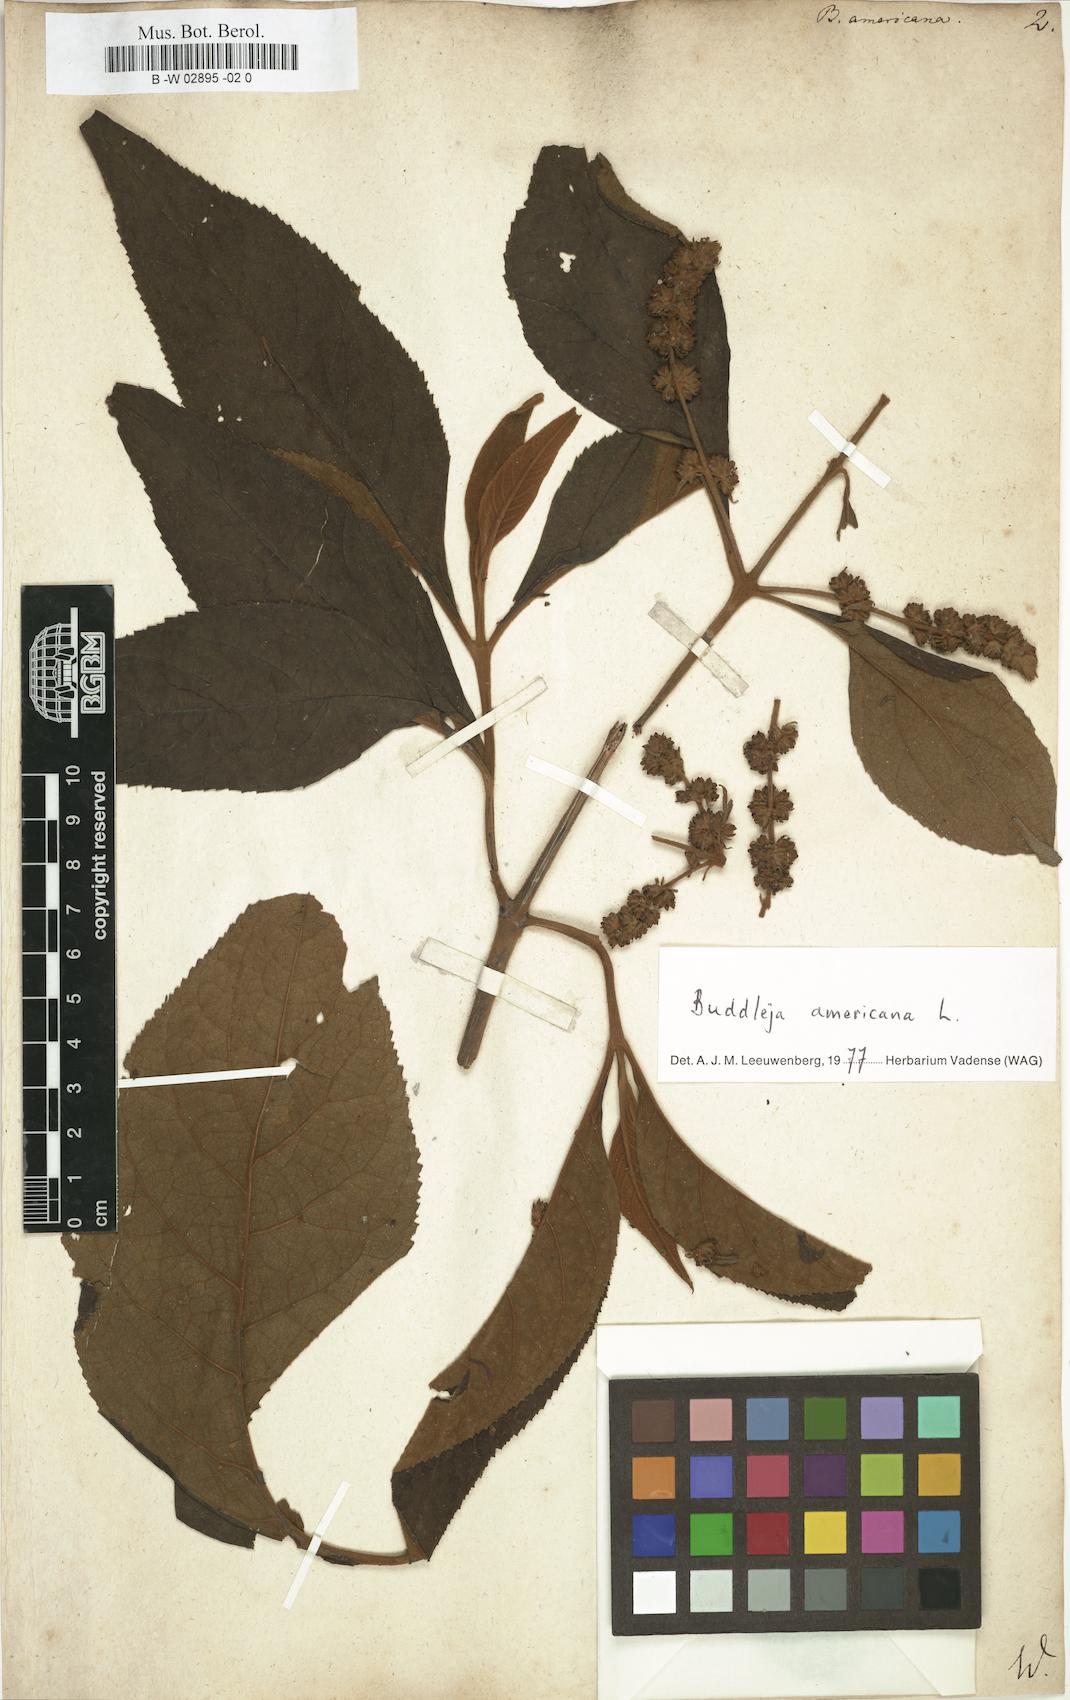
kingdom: Plantae
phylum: Tracheophyta
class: Magnoliopsida
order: Lamiales
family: Scrophulariaceae
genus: Buddleja
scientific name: Buddleja americana
